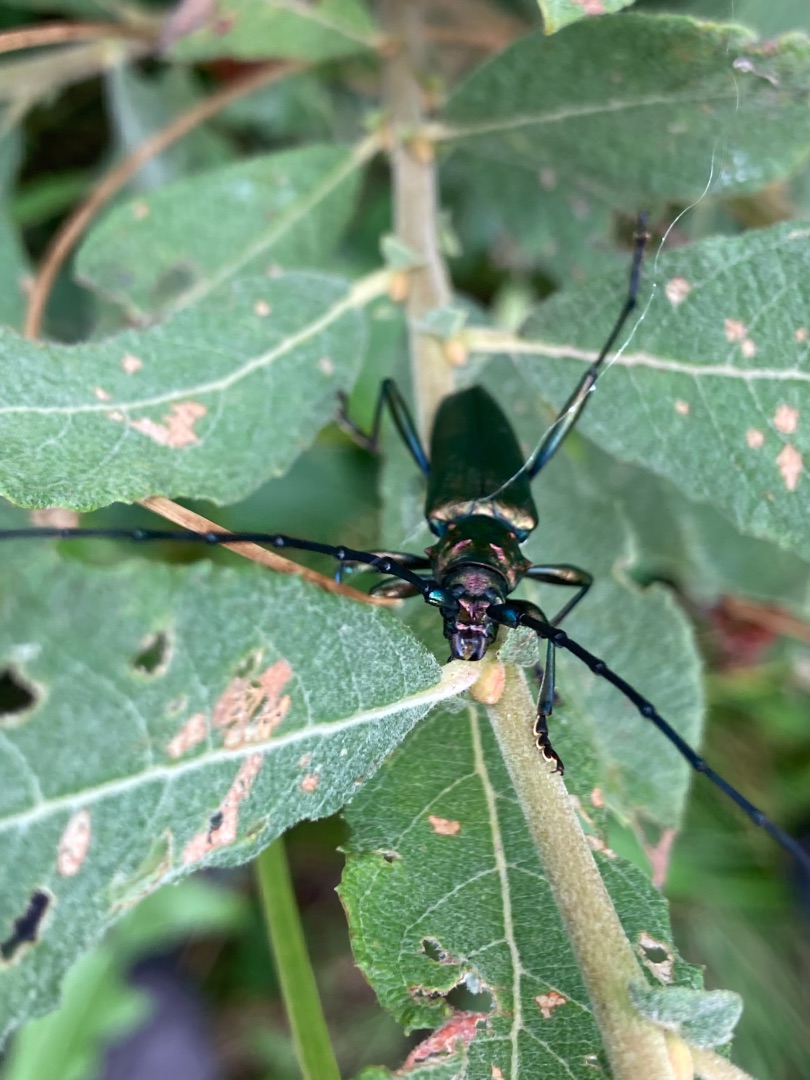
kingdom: Animalia
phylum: Arthropoda
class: Insecta
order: Coleoptera
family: Cerambycidae
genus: Aromia
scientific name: Aromia moschata
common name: Moskusbuk
